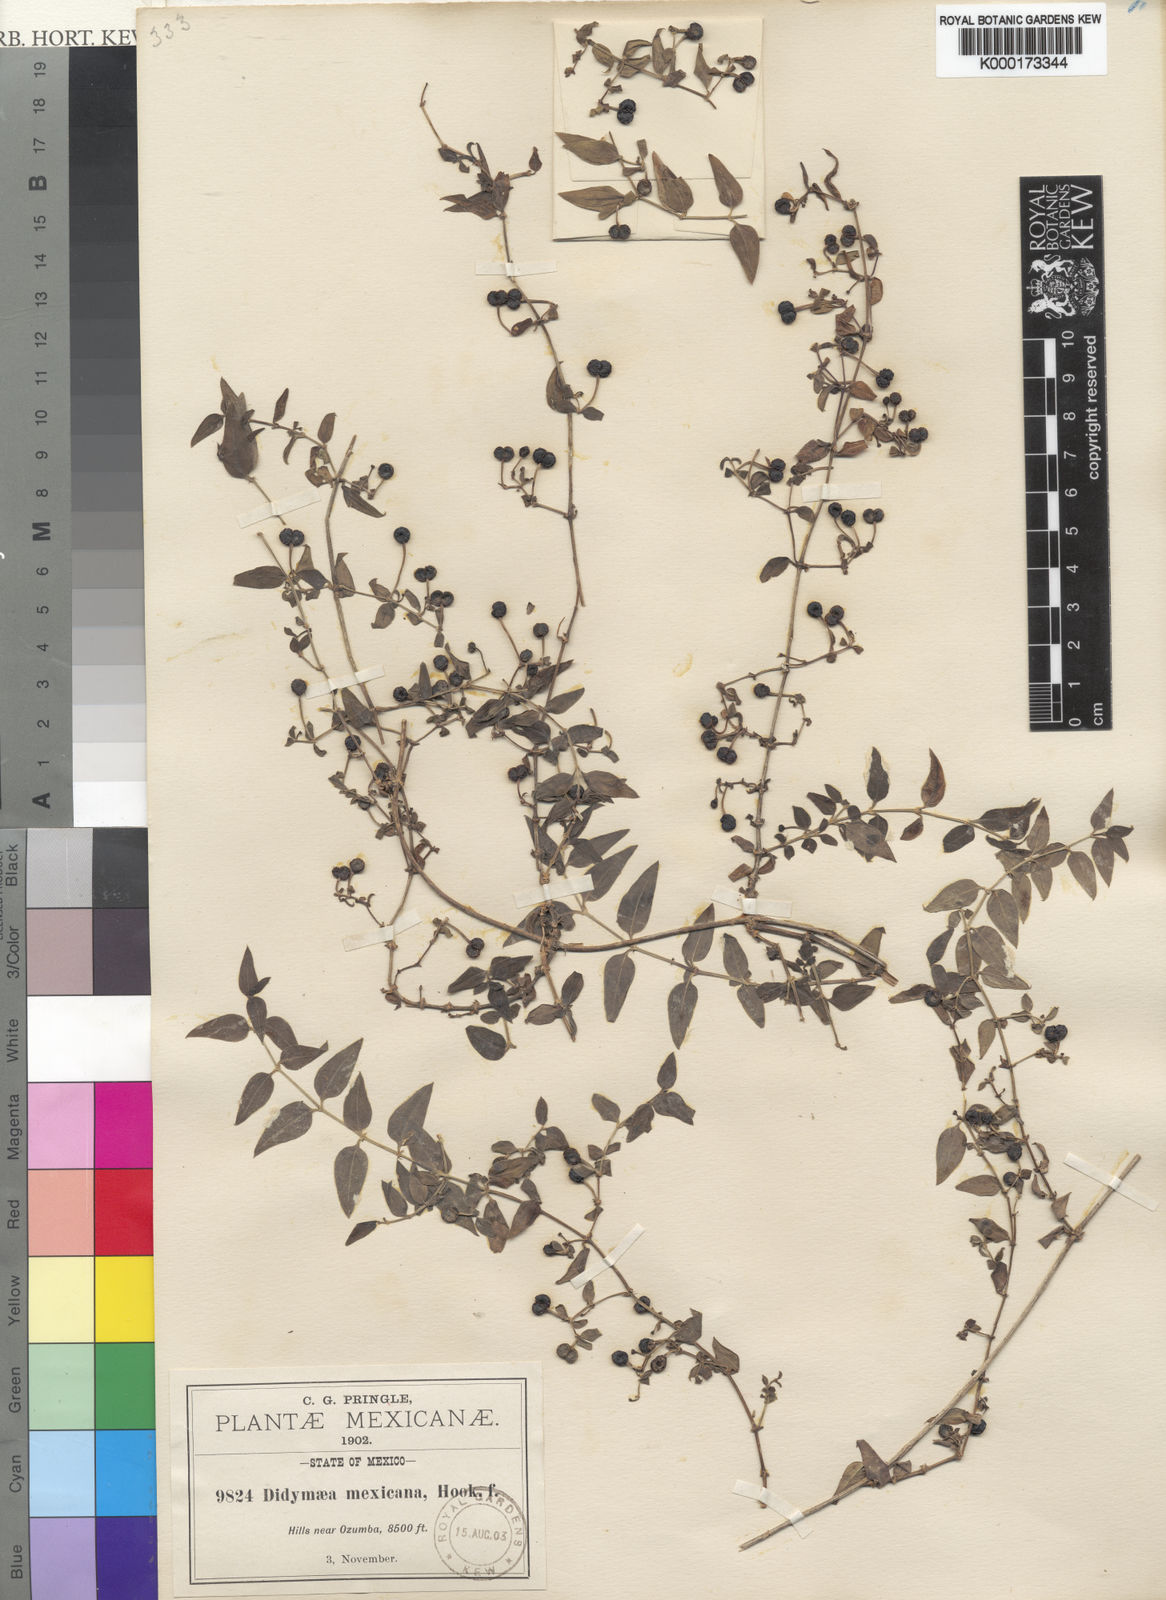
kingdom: Plantae
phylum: Tracheophyta
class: Magnoliopsida
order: Gentianales
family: Rubiaceae
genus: Didymaea
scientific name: Didymaea alsinoides
